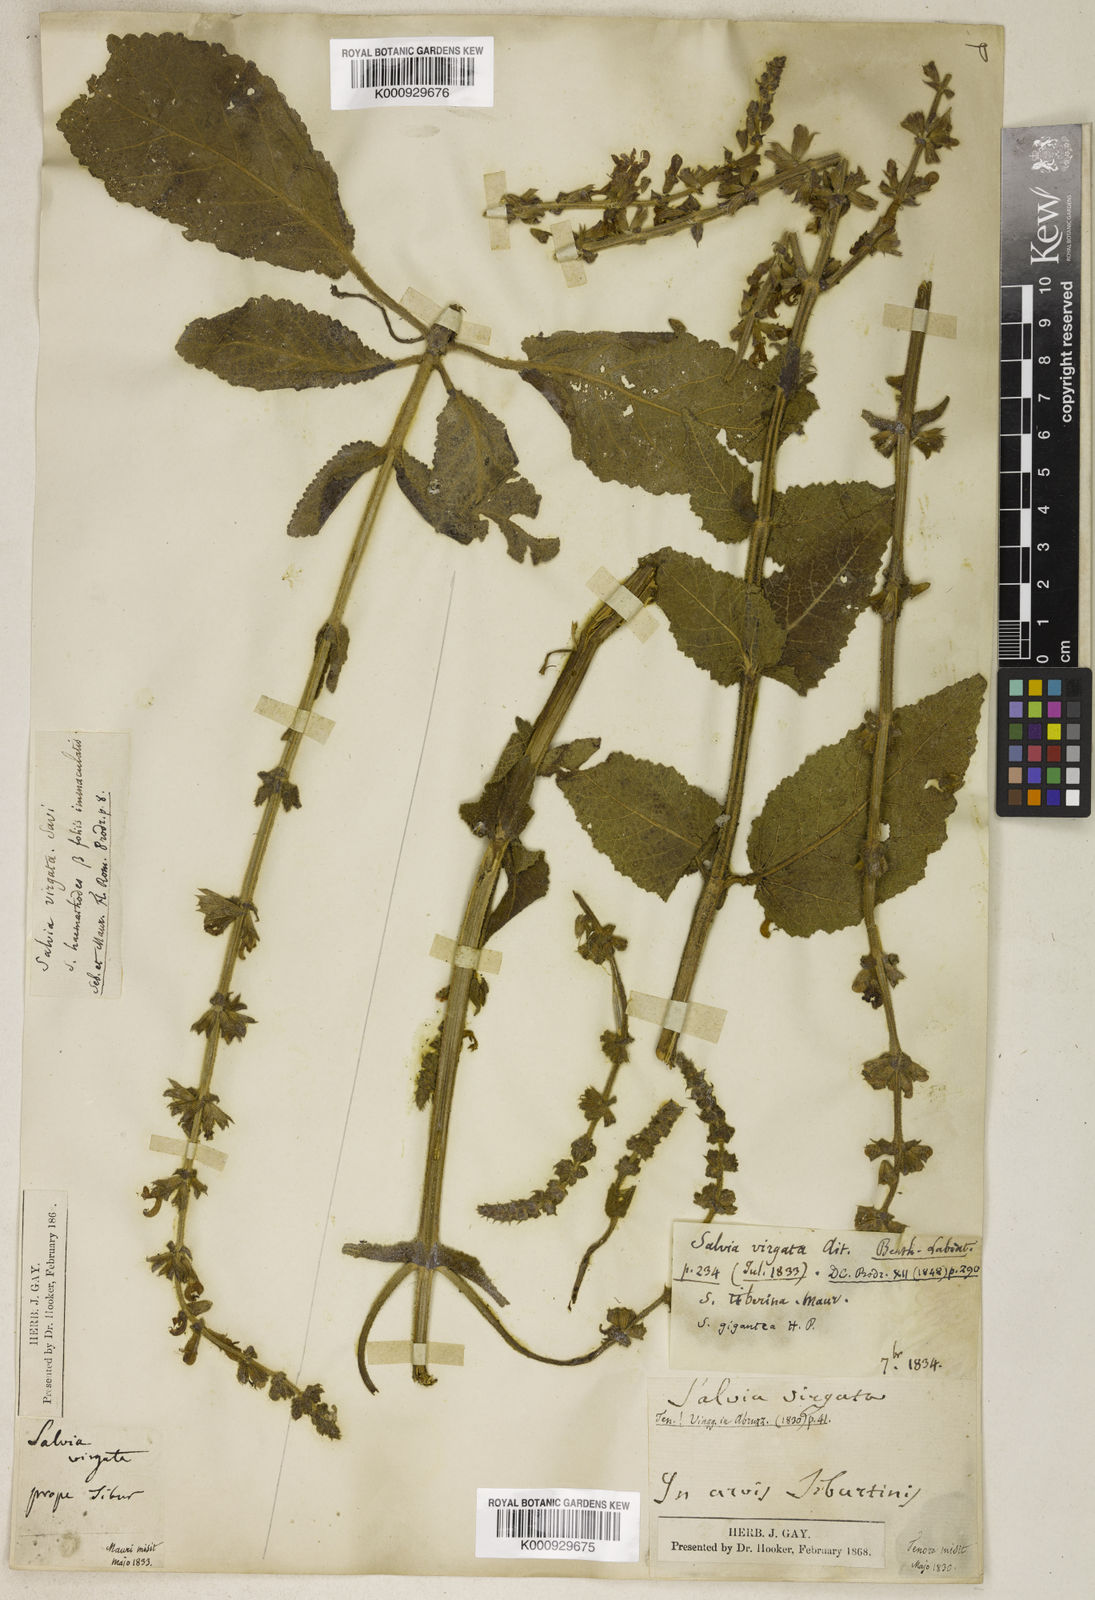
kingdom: Plantae
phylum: Tracheophyta
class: Magnoliopsida
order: Lamiales
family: Lamiaceae
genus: Salvia
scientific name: Salvia
